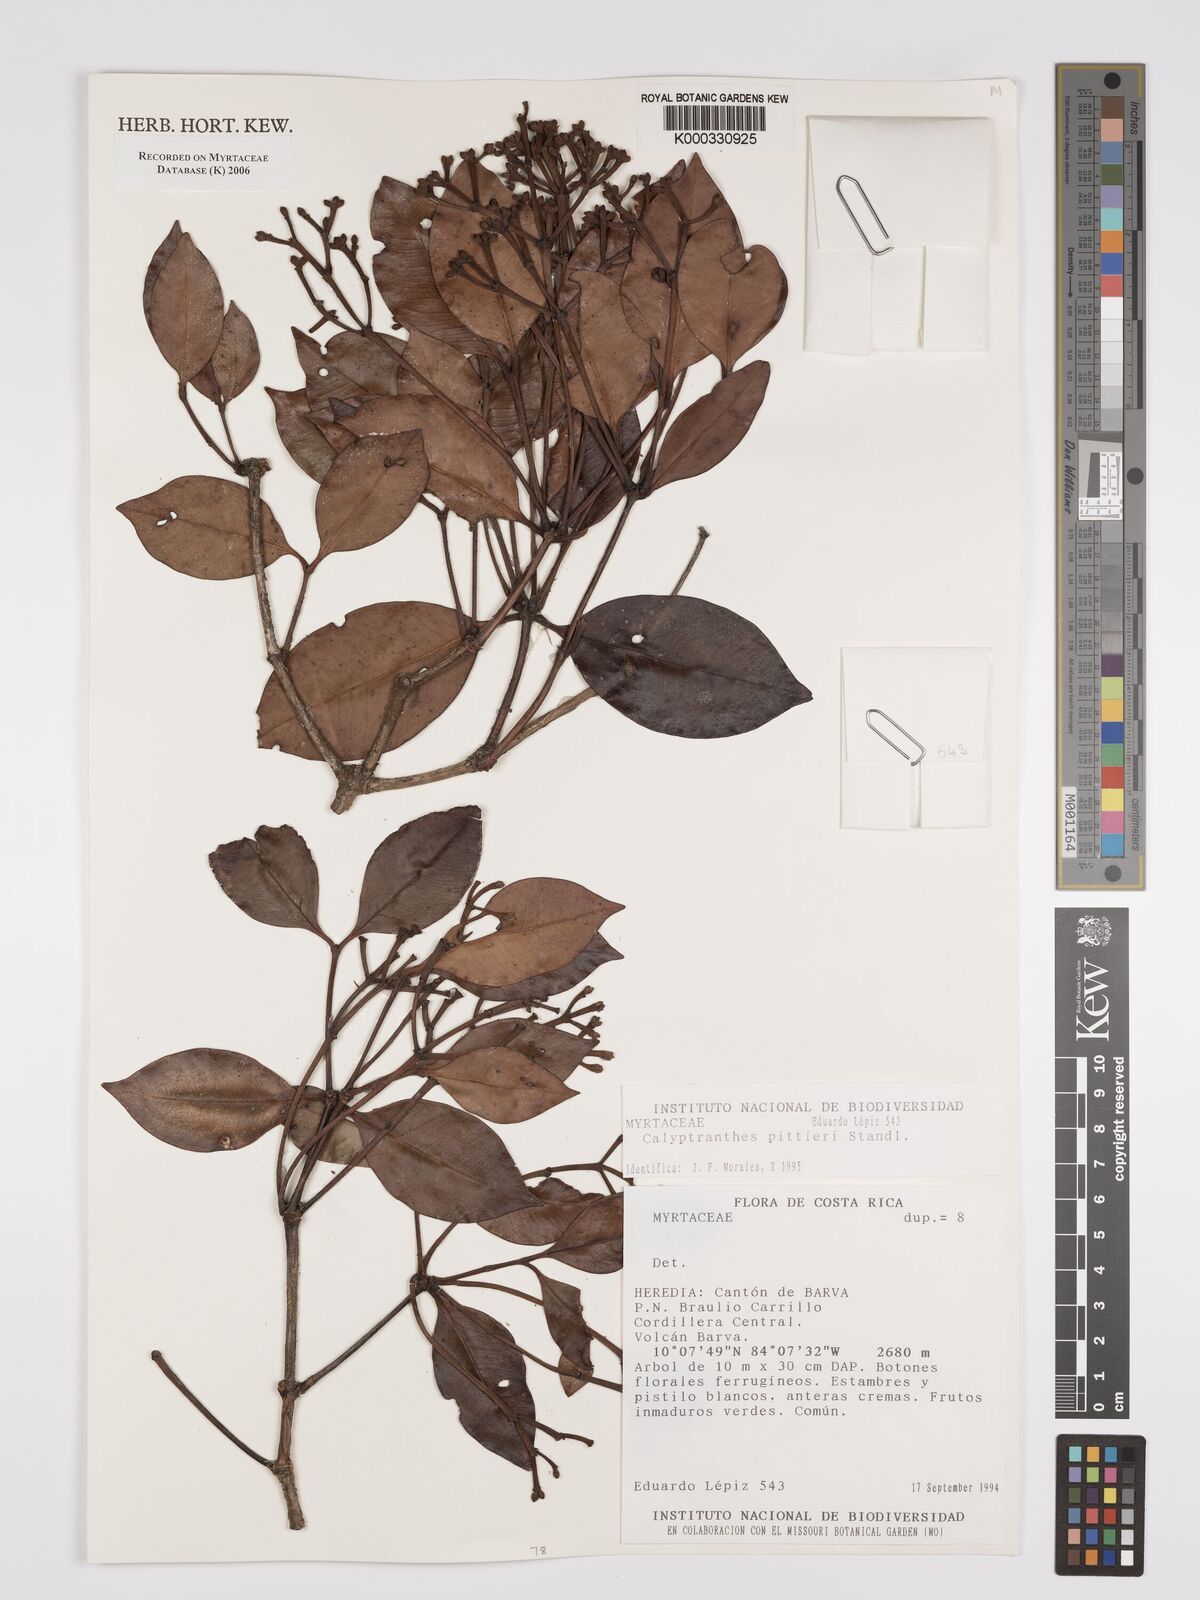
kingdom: Plantae
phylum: Tracheophyta
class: Magnoliopsida
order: Myrtales
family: Myrtaceae
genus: Myrcia
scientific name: Myrcia pittieri
